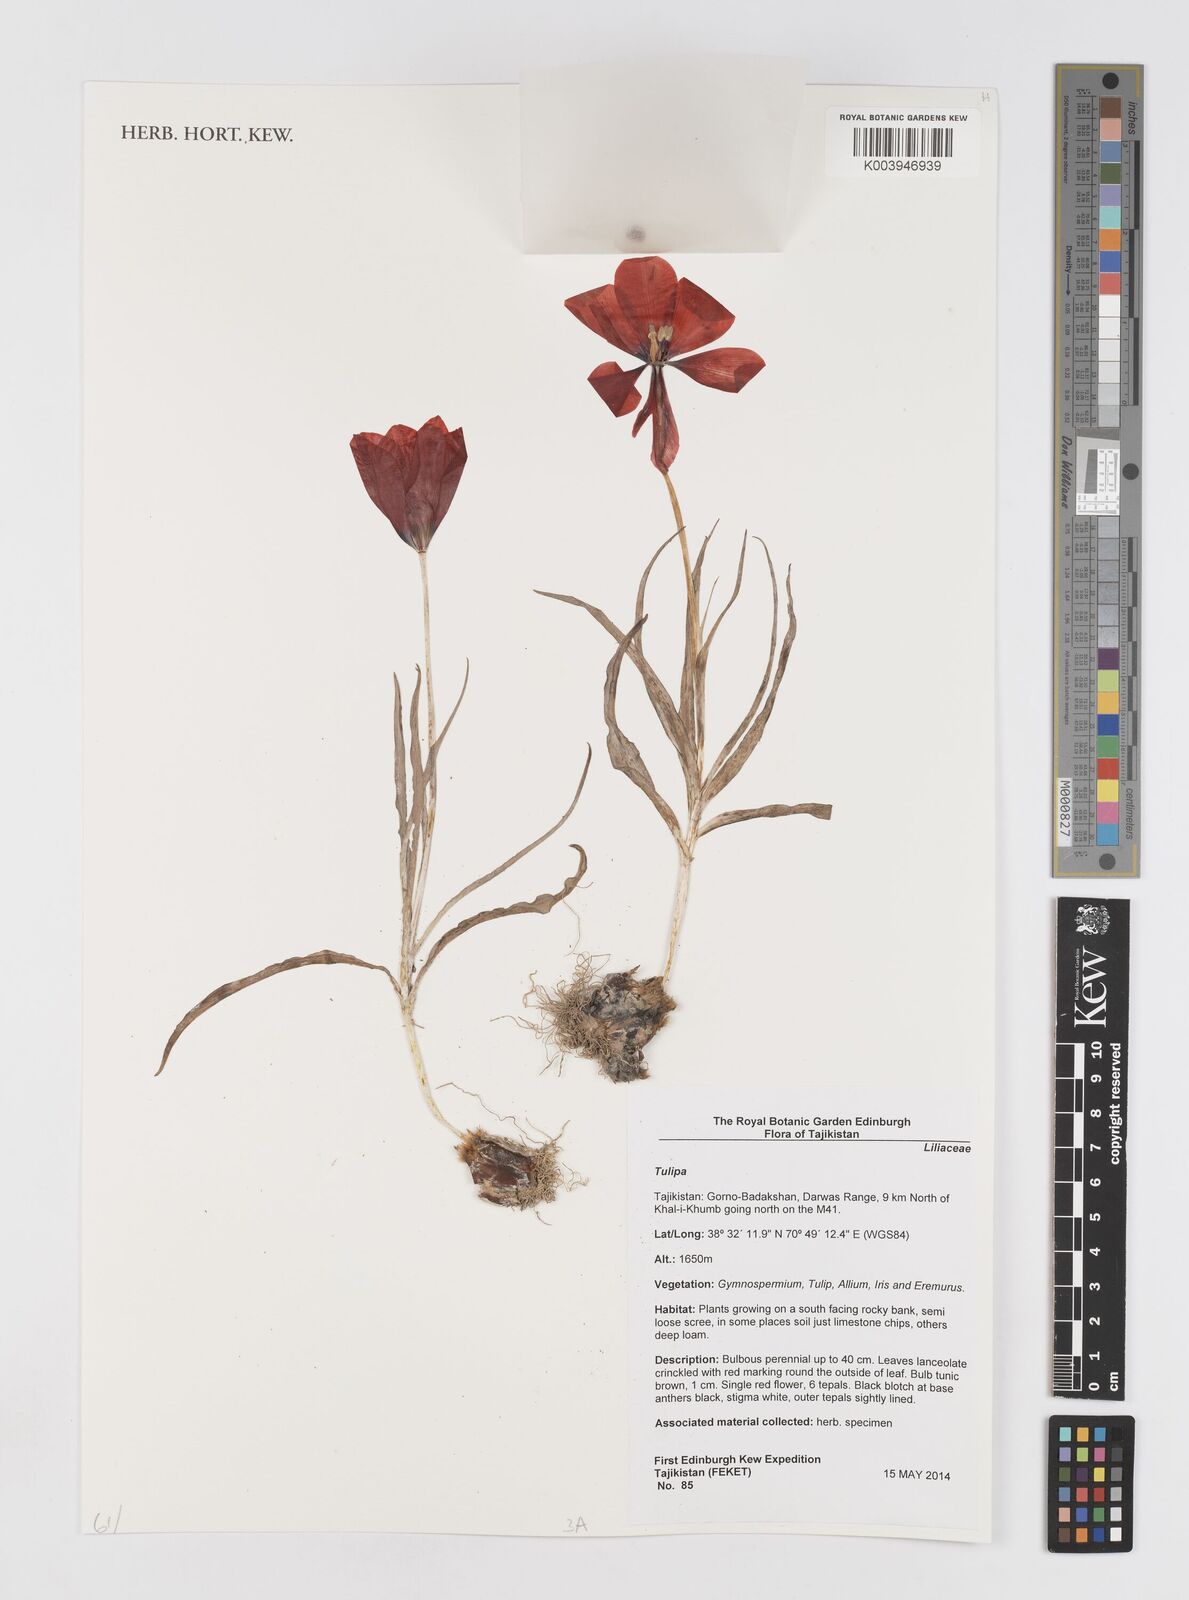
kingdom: Plantae
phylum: Tracheophyta
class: Liliopsida
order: Liliales
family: Liliaceae
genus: Tulipa
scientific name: Tulipa
